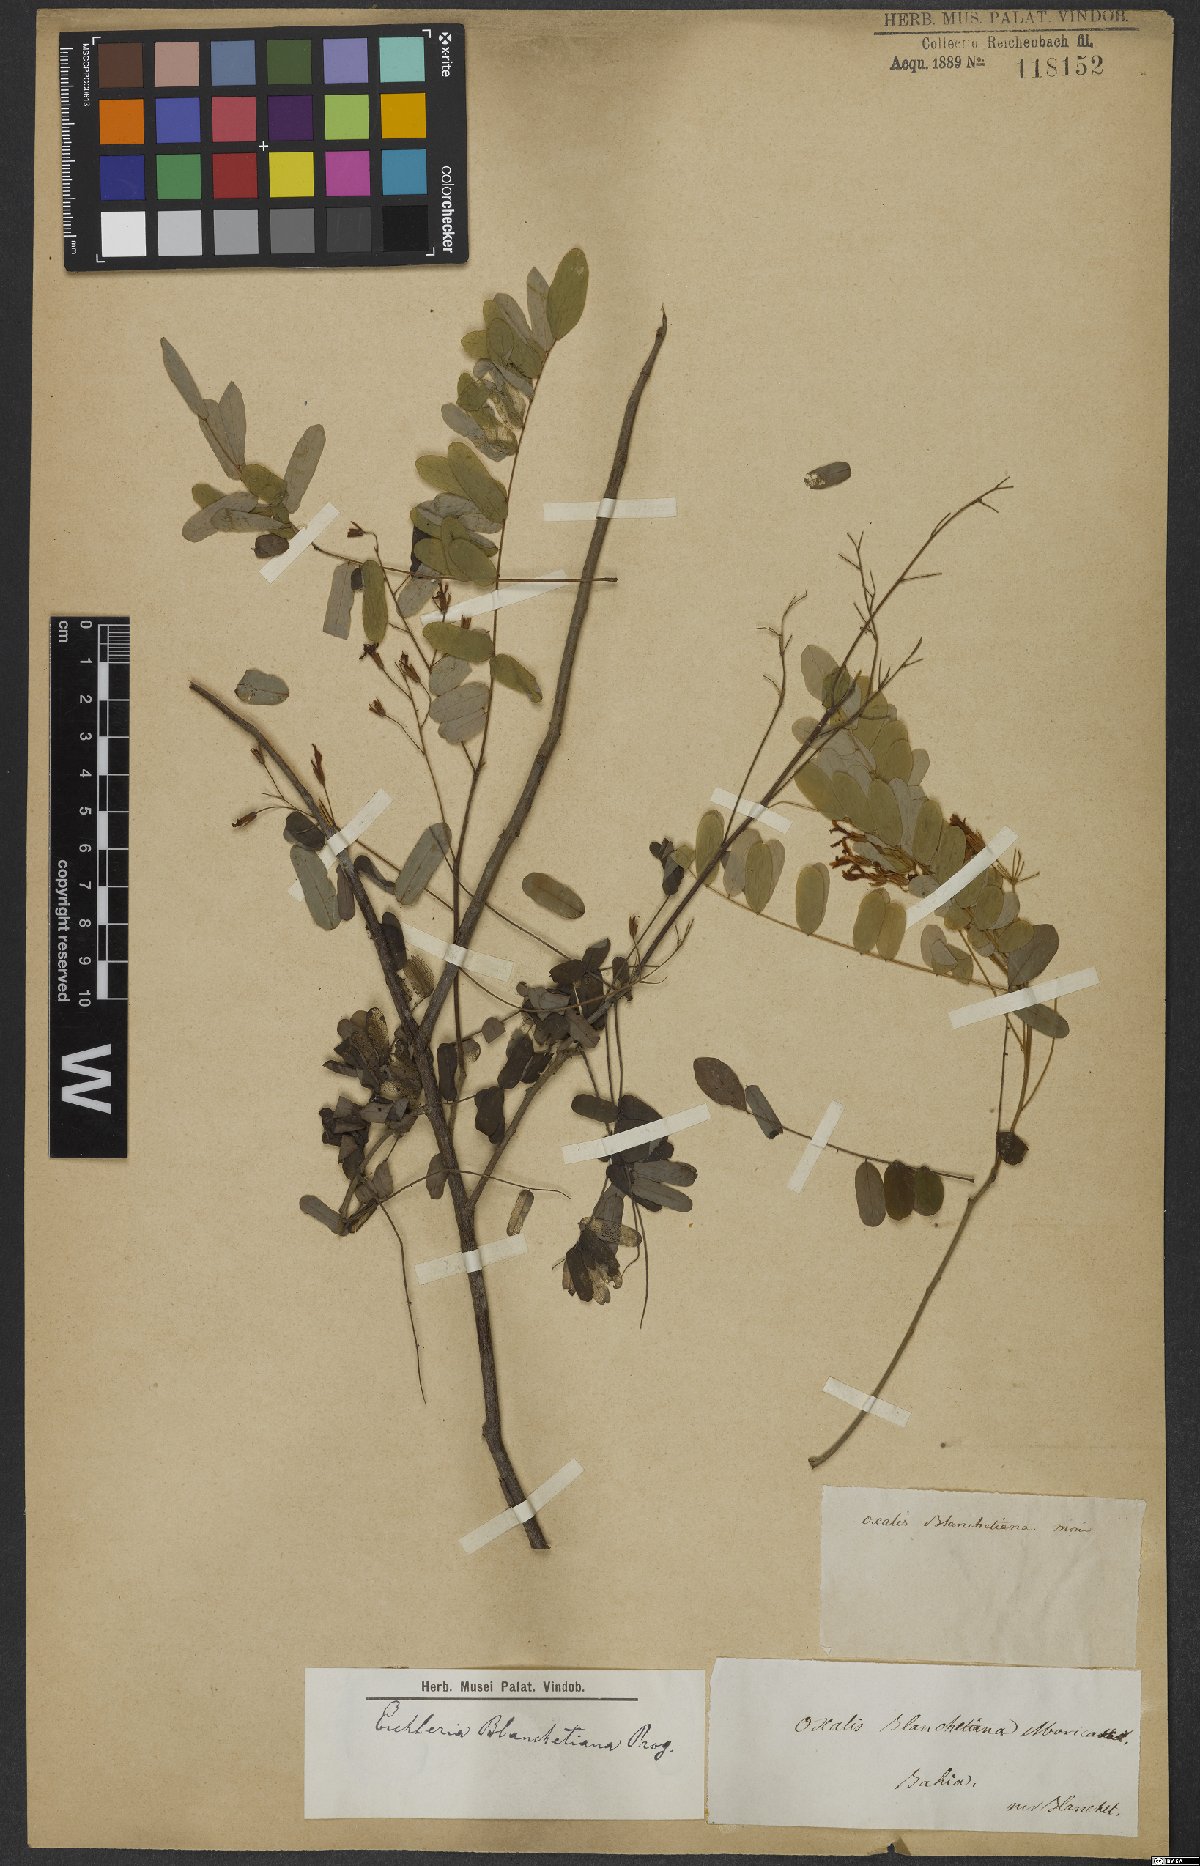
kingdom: Plantae
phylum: Tracheophyta
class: Magnoliopsida
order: Oxalidales
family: Connaraceae
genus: Rourea
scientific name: Rourea blanchetiana
